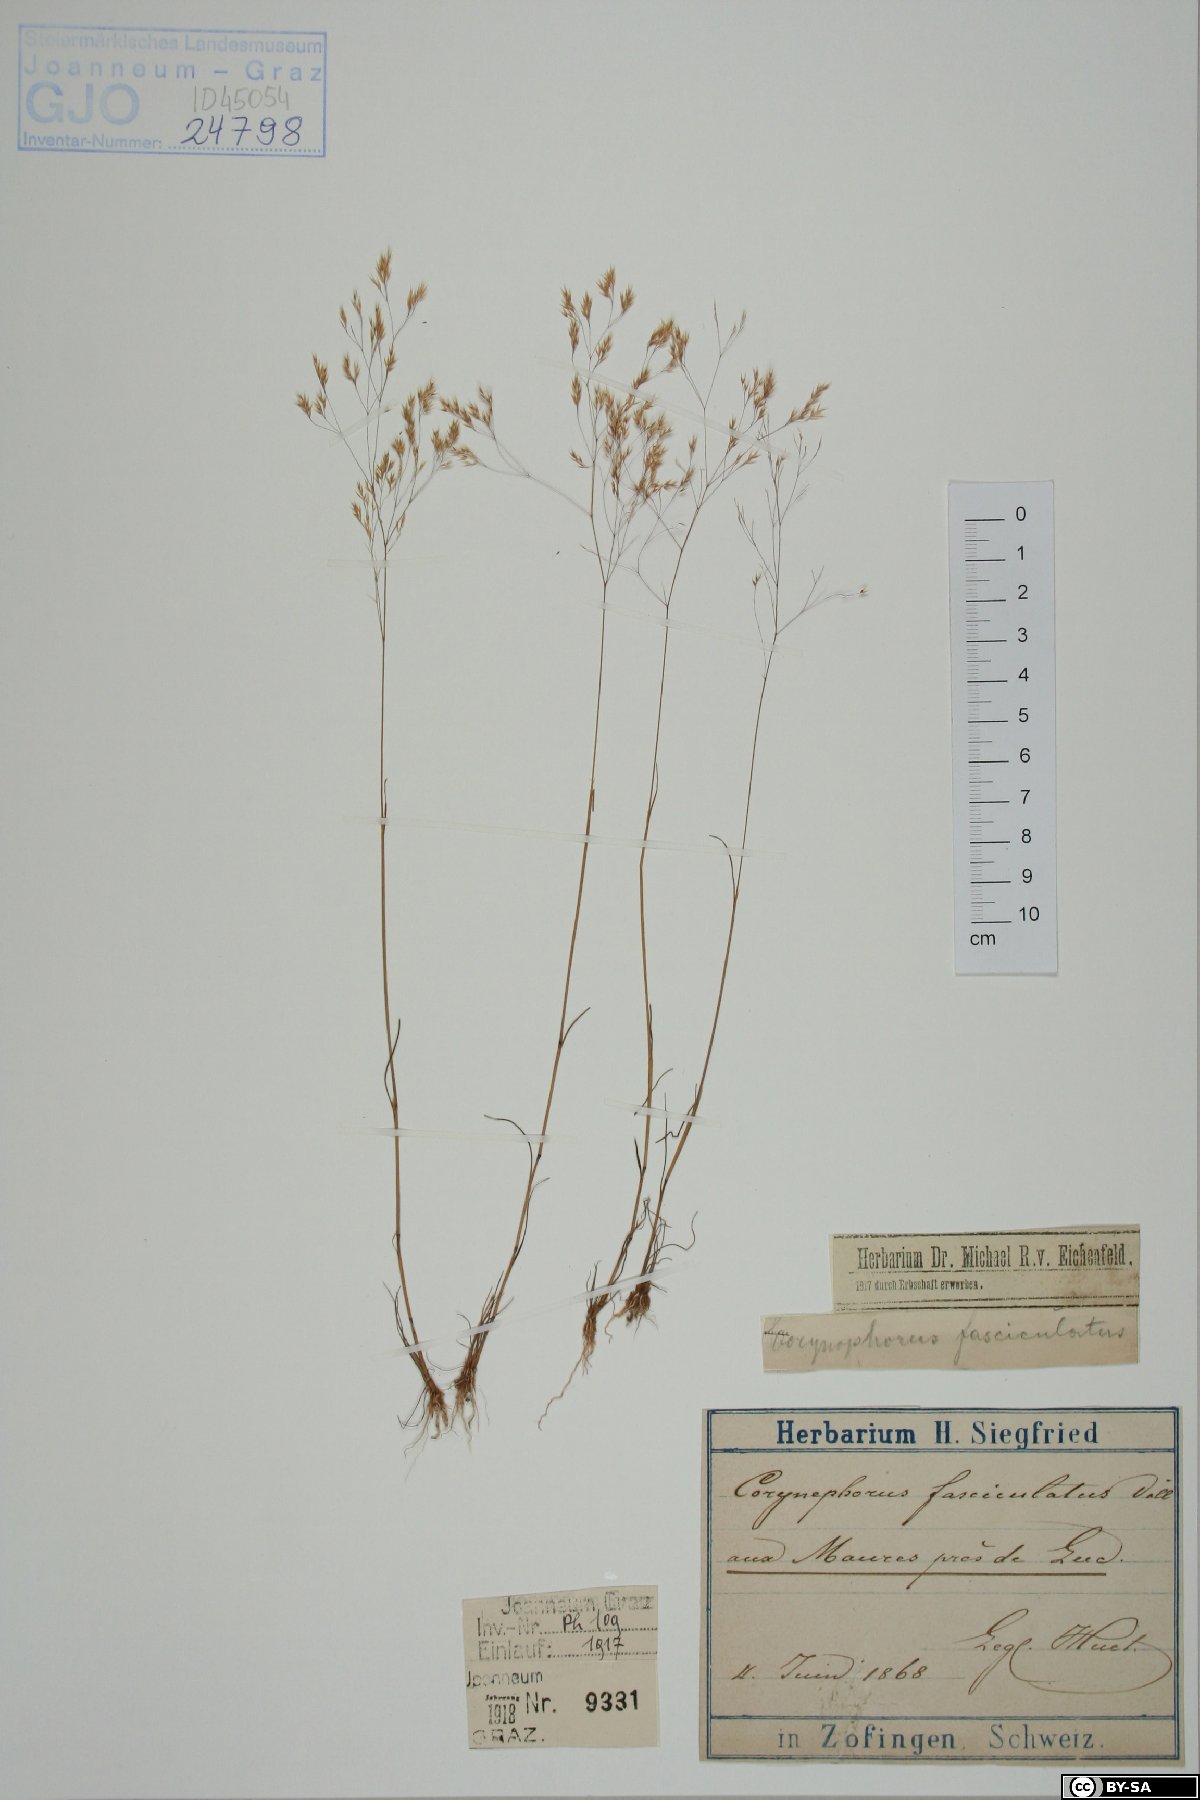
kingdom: Plantae
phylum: Tracheophyta
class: Liliopsida
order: Poales
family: Poaceae
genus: Corynephorus
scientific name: Corynephorus fasciculatus
